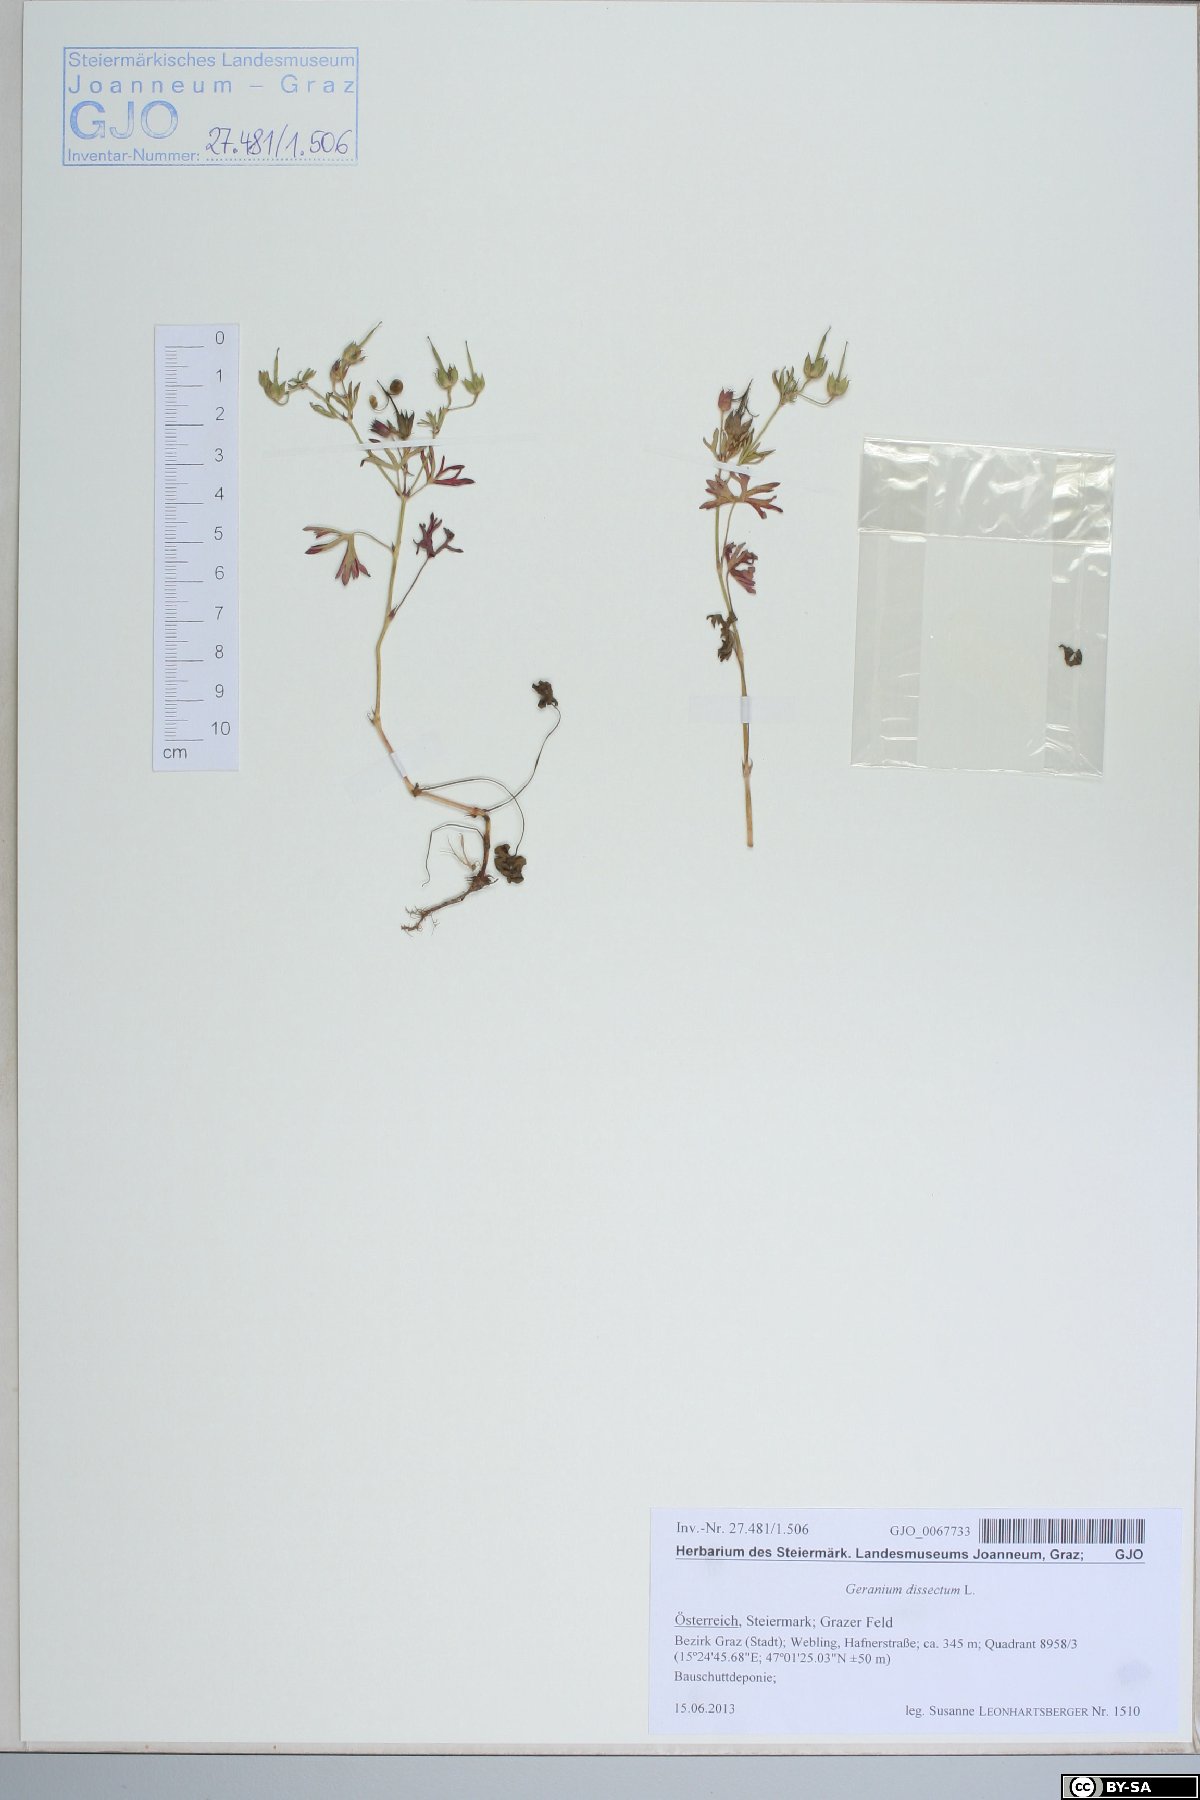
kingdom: Plantae
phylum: Tracheophyta
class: Magnoliopsida
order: Geraniales
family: Geraniaceae
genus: Geranium
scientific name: Geranium dissectum
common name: Cut-leaved crane's-bill
